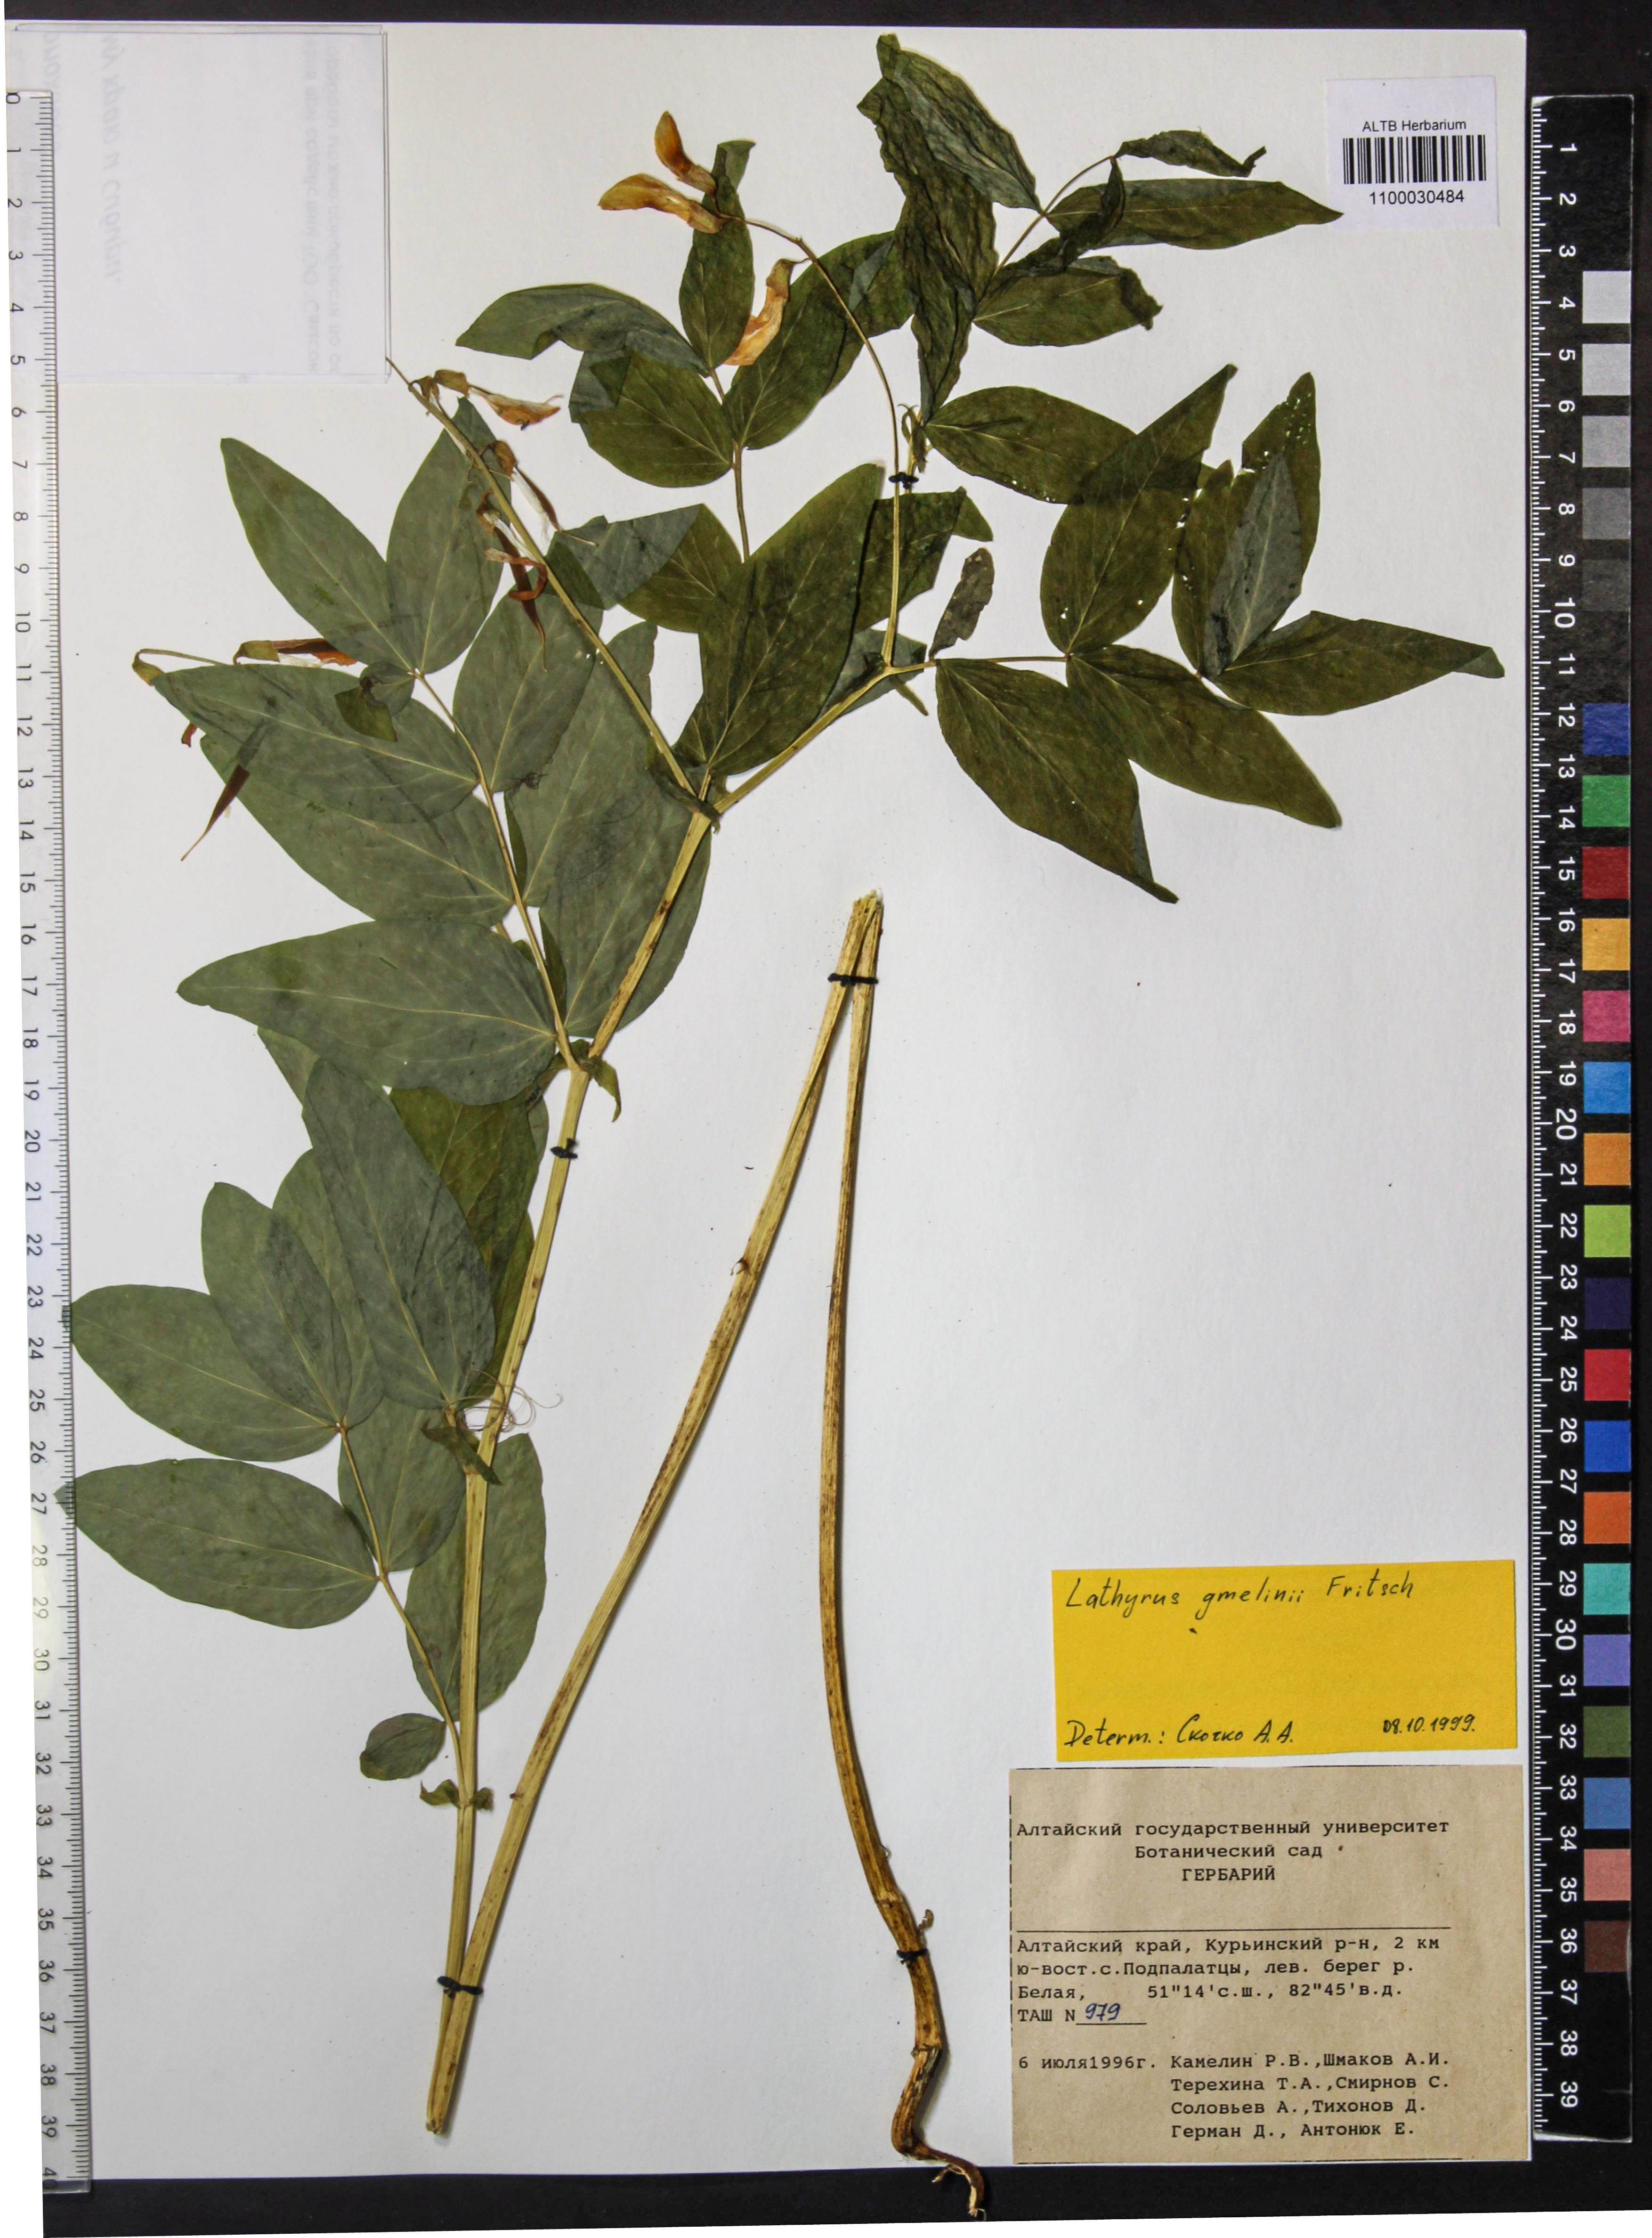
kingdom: Plantae
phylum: Tracheophyta
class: Magnoliopsida
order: Fabales
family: Fabaceae
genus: Lathyrus
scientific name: Lathyrus gmelinii
